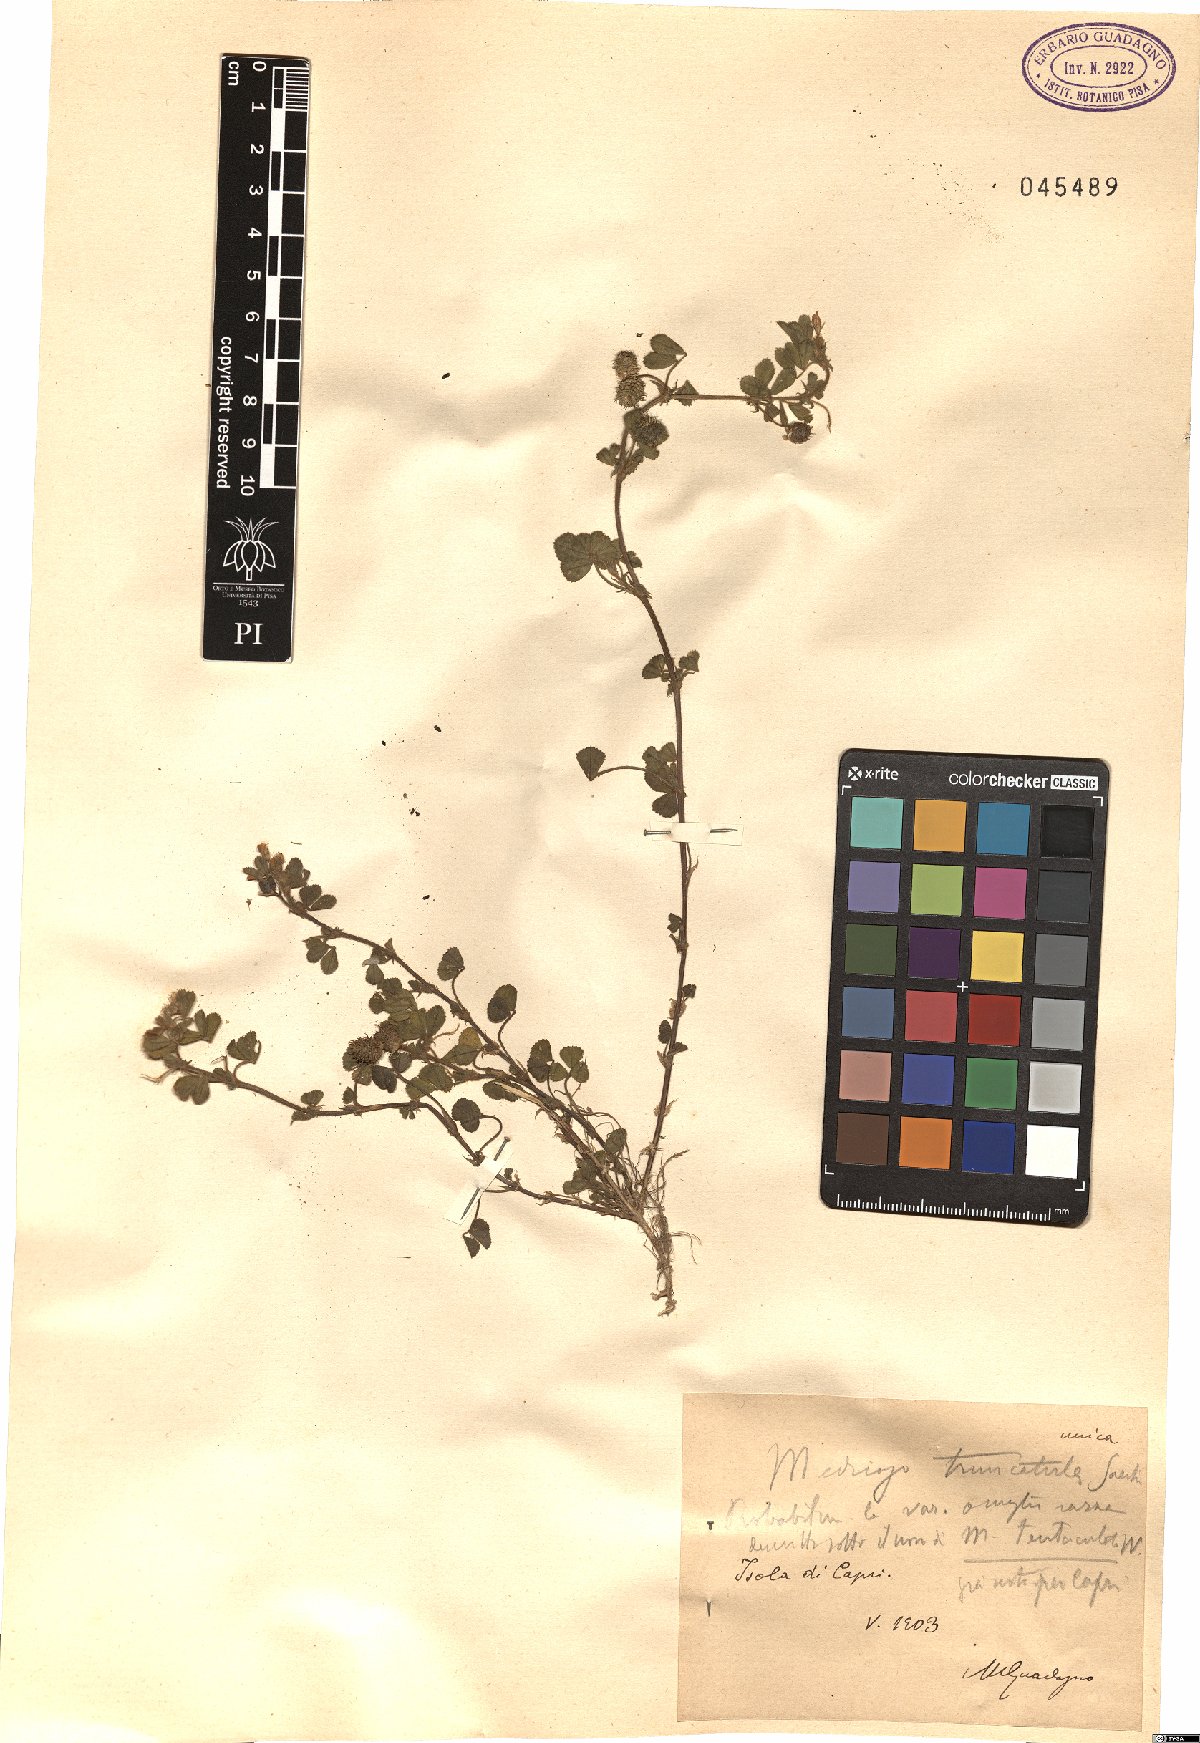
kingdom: Plantae
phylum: Tracheophyta
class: Magnoliopsida
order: Fabales
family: Fabaceae
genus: Medicago
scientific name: Medicago truncatula
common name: Strong-spined medick
